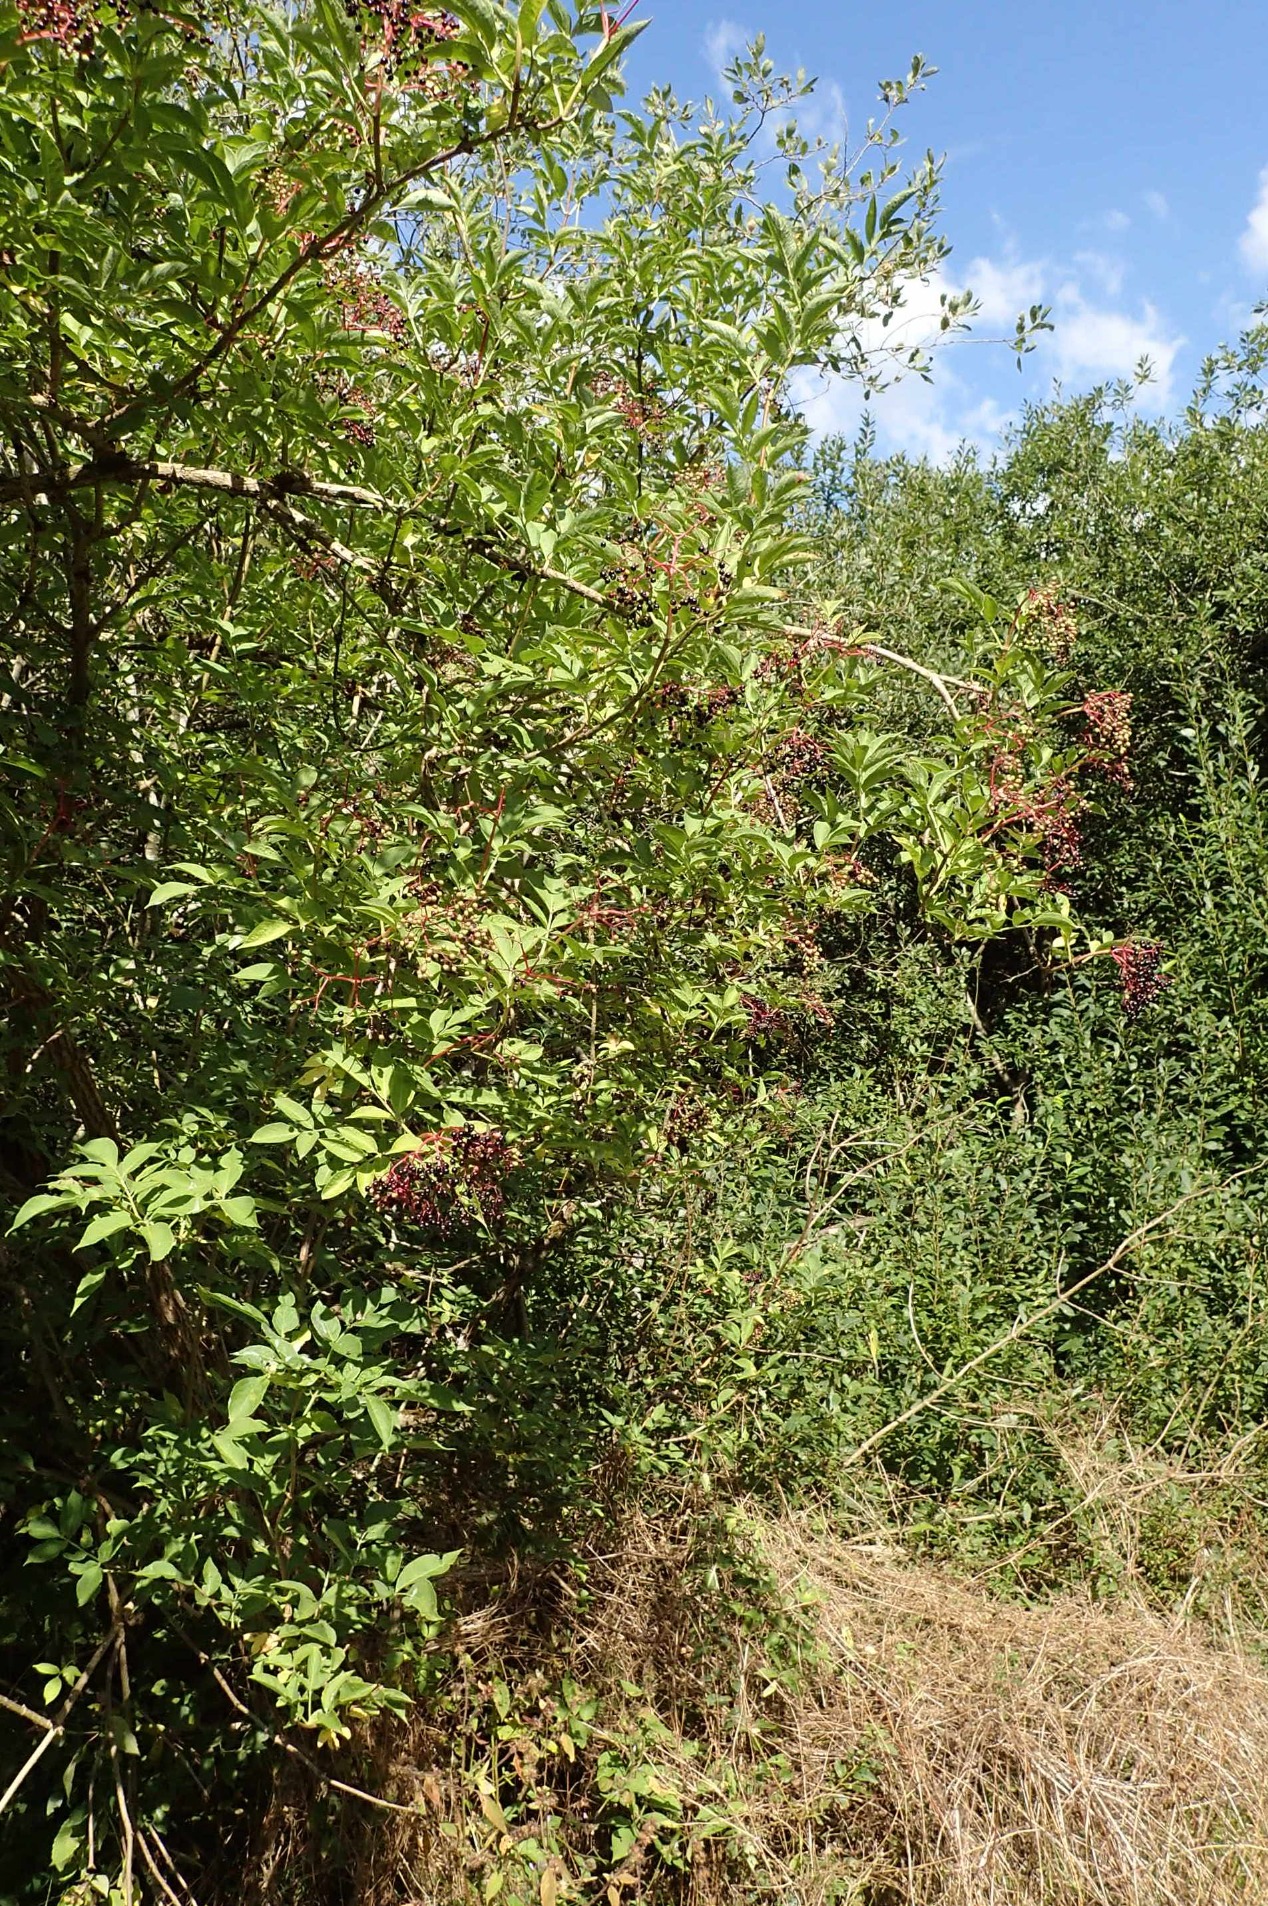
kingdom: Plantae
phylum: Tracheophyta
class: Magnoliopsida
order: Dipsacales
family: Viburnaceae
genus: Sambucus
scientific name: Sambucus nigra
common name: Almindelig hyld
